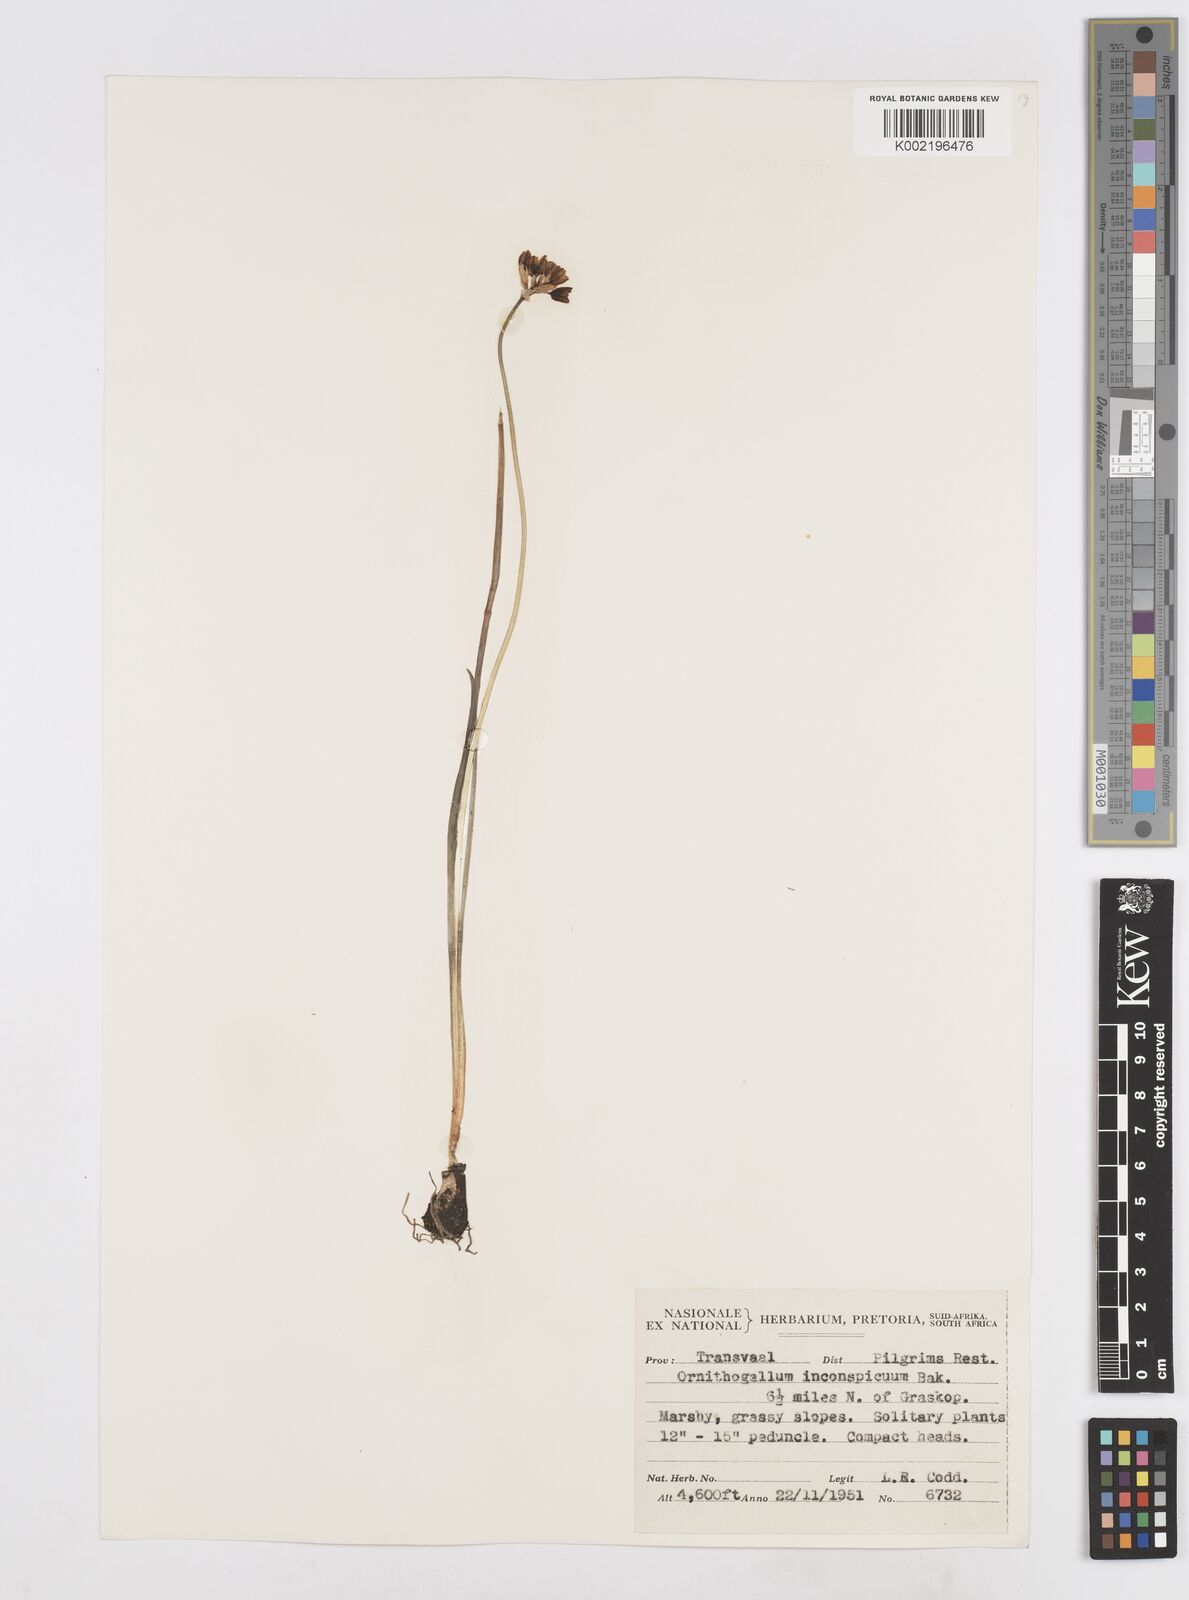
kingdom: Plantae
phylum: Tracheophyta
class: Liliopsida
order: Asparagales
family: Asparagaceae
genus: Albuca
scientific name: Albuca virens
